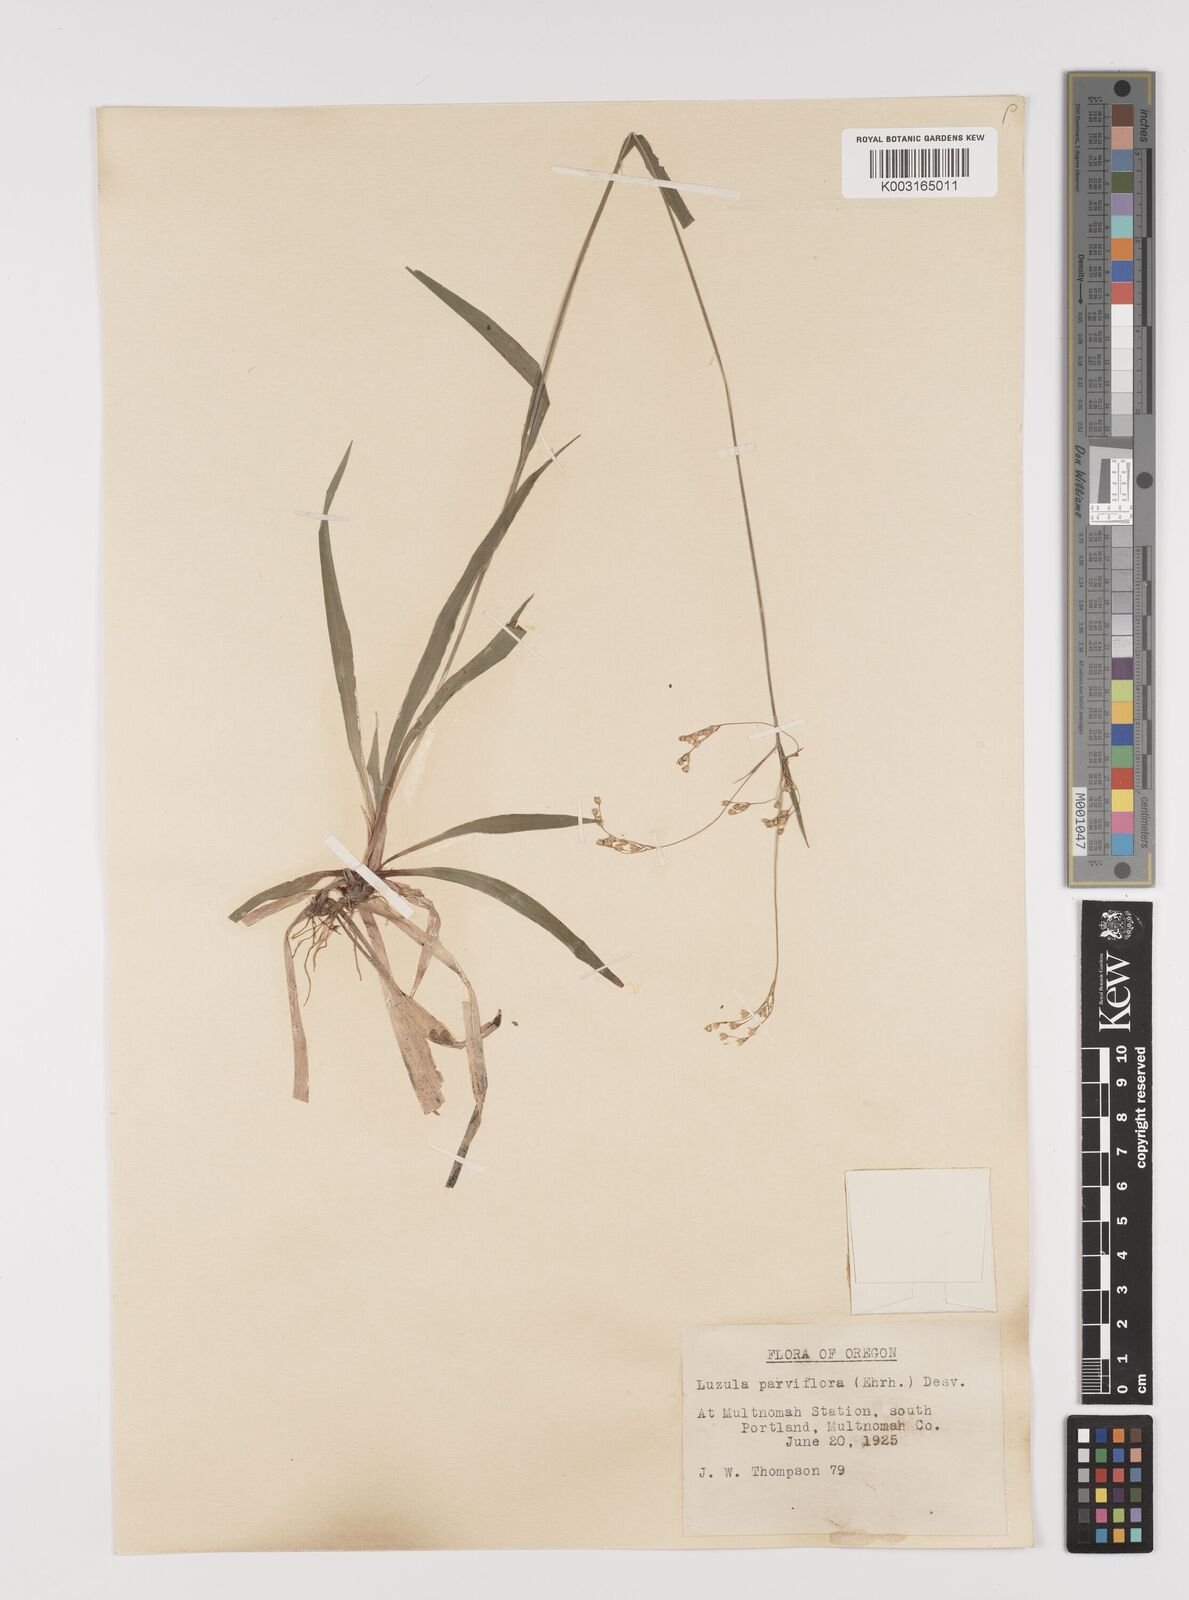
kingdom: Plantae
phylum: Tracheophyta
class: Liliopsida
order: Poales
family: Juncaceae
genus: Luzula
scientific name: Luzula parviflora
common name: Millet woodrush
